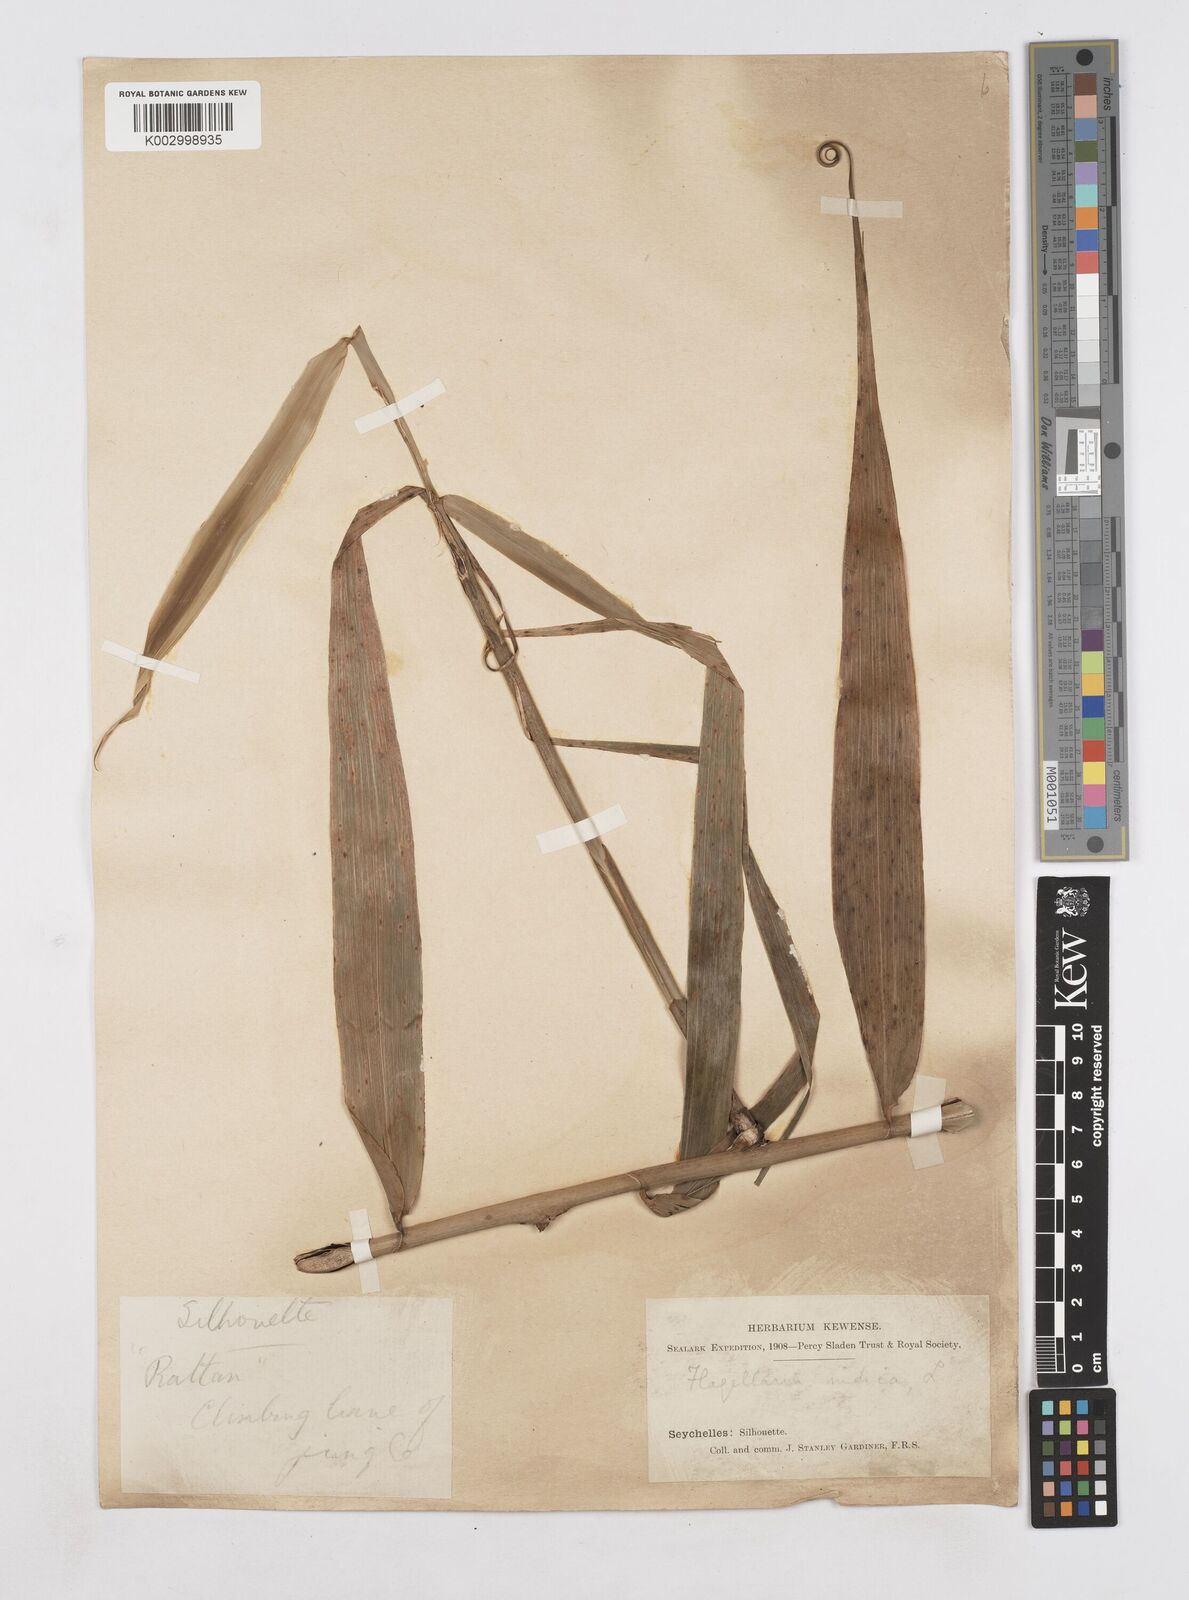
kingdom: Plantae
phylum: Tracheophyta
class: Liliopsida
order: Poales
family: Flagellariaceae
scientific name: Flagellariaceae
